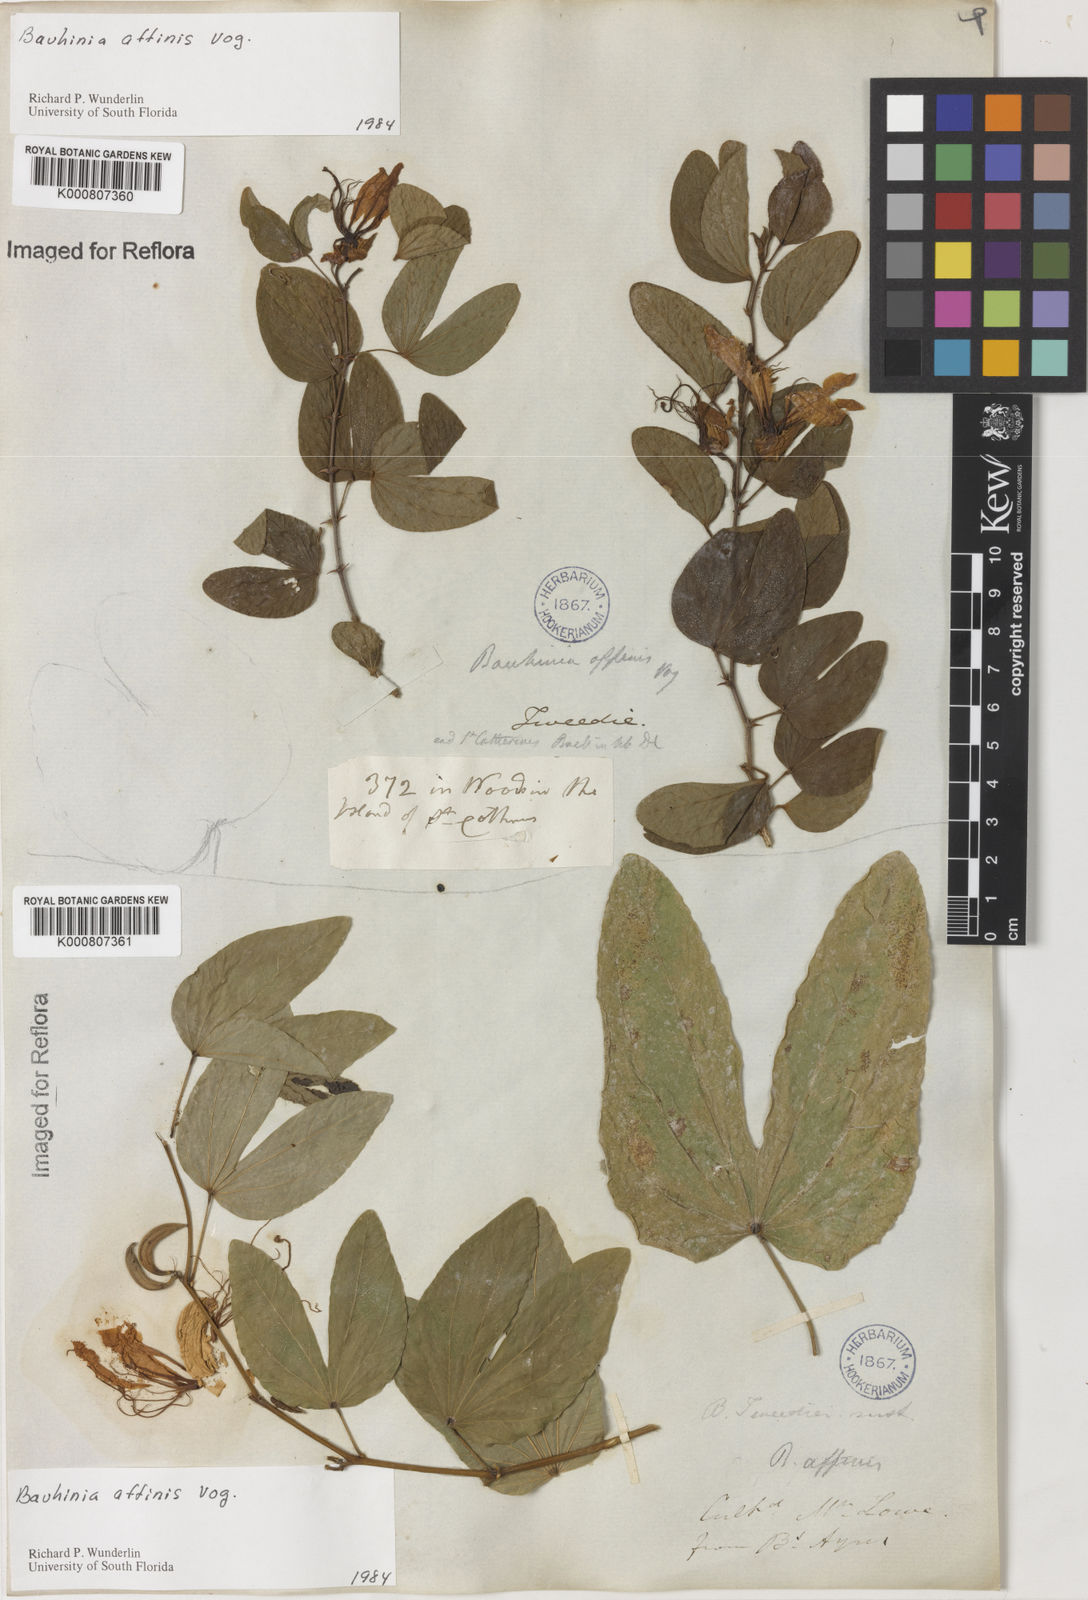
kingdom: Plantae
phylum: Tracheophyta
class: Magnoliopsida
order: Fabales
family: Fabaceae
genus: Bauhinia
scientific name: Bauhinia affinis
